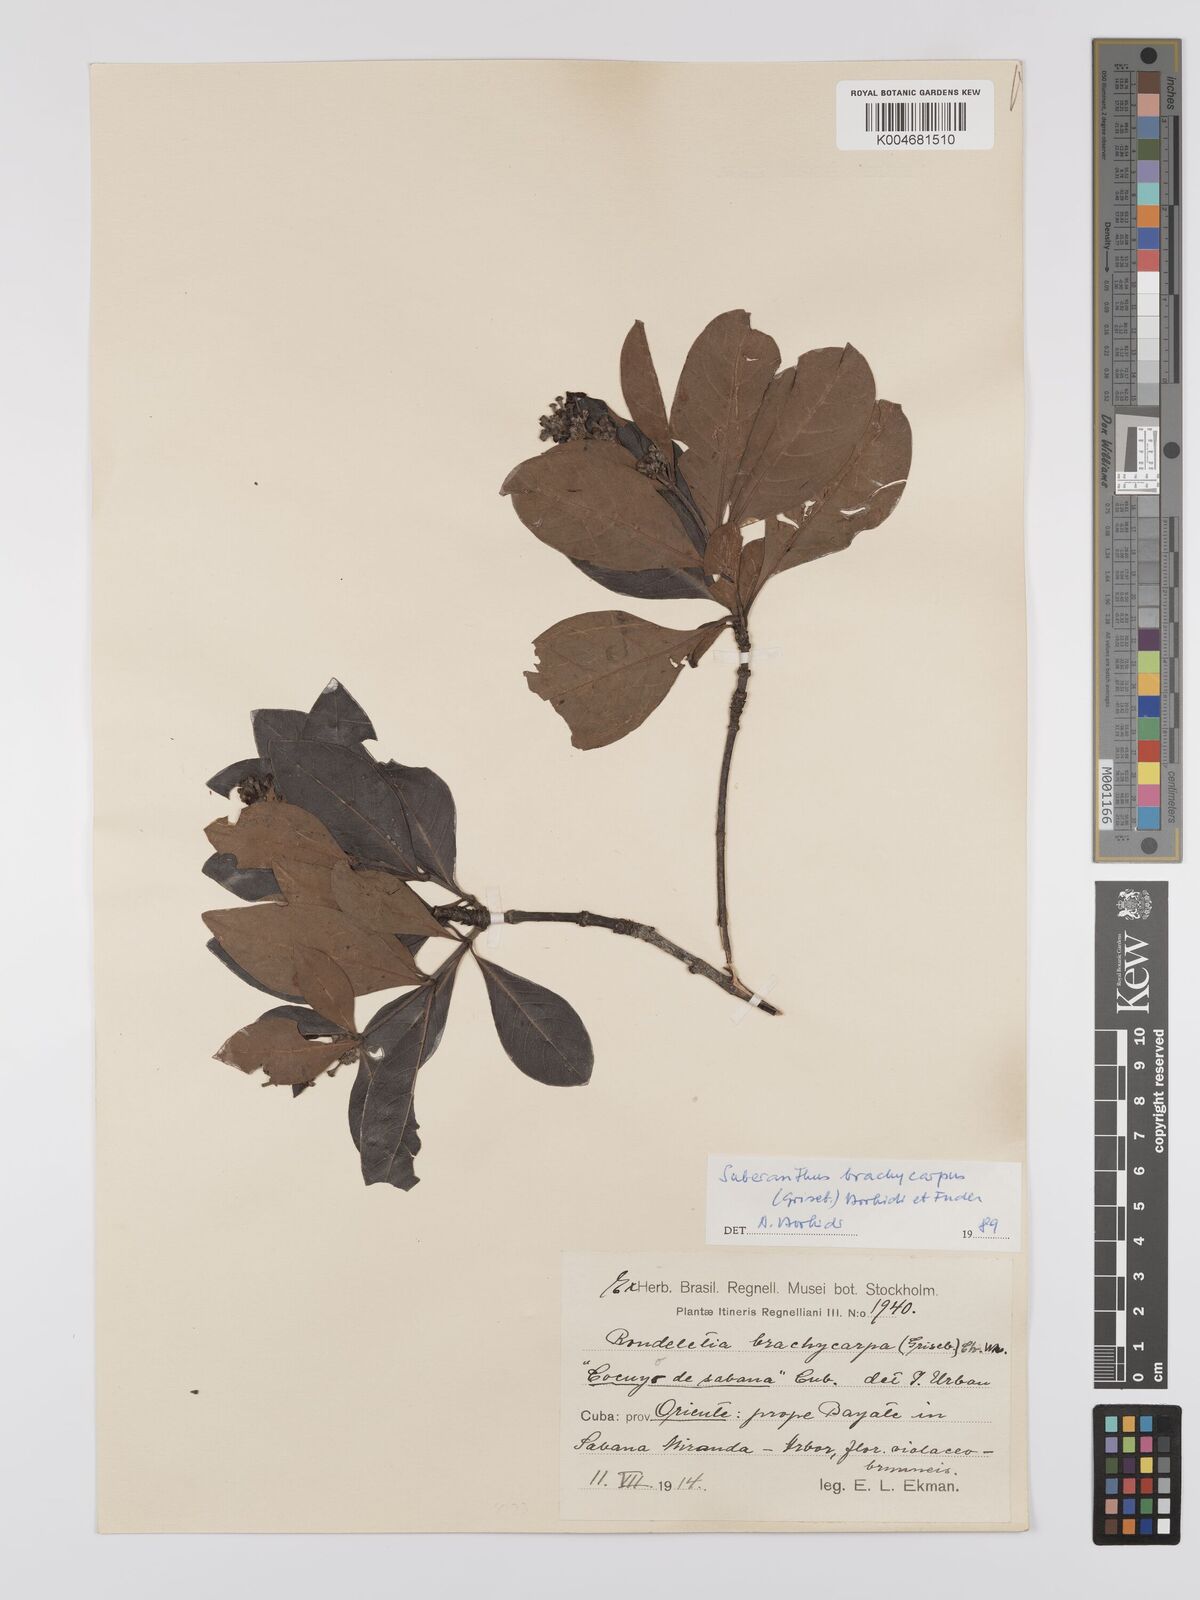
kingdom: Plantae
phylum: Tracheophyta
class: Magnoliopsida
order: Gentianales
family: Rubiaceae
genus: Suberanthus
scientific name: Suberanthus brachycarpus
